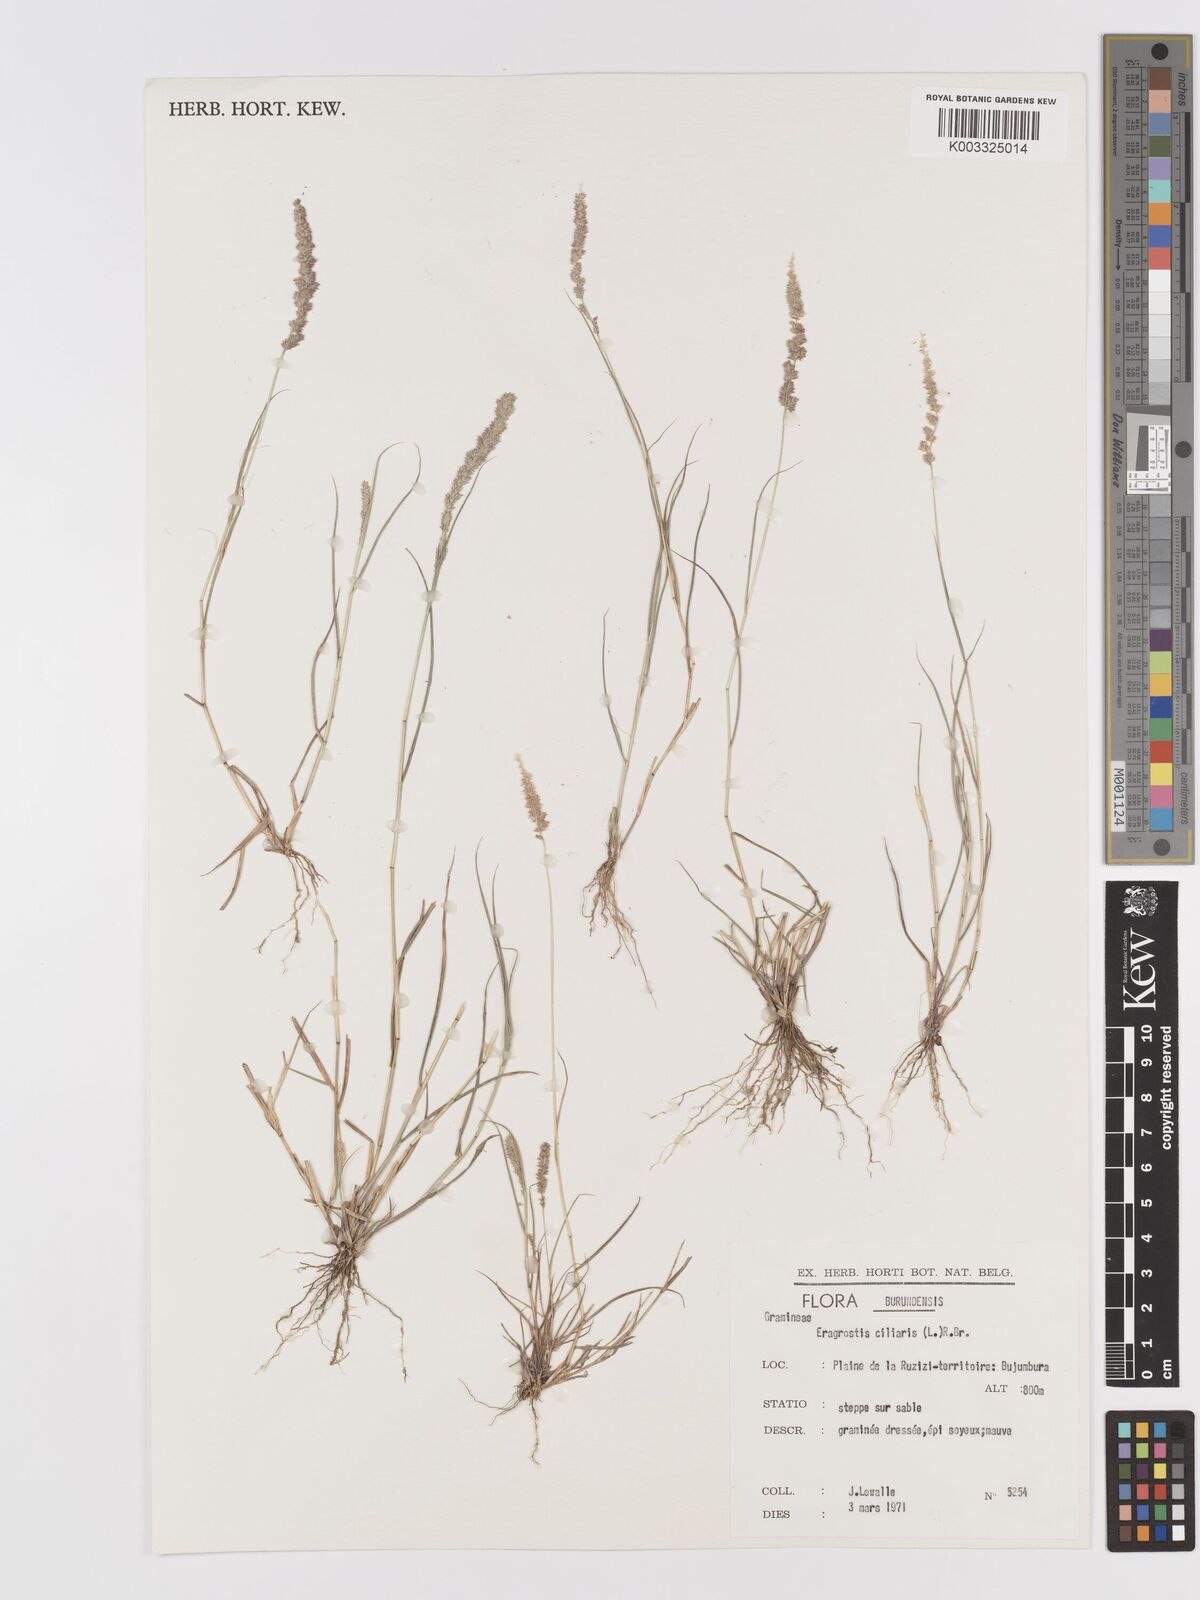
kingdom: Plantae
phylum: Tracheophyta
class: Liliopsida
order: Poales
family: Poaceae
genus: Eragrostis
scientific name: Eragrostis ciliaris
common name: Gophertail lovegrass
